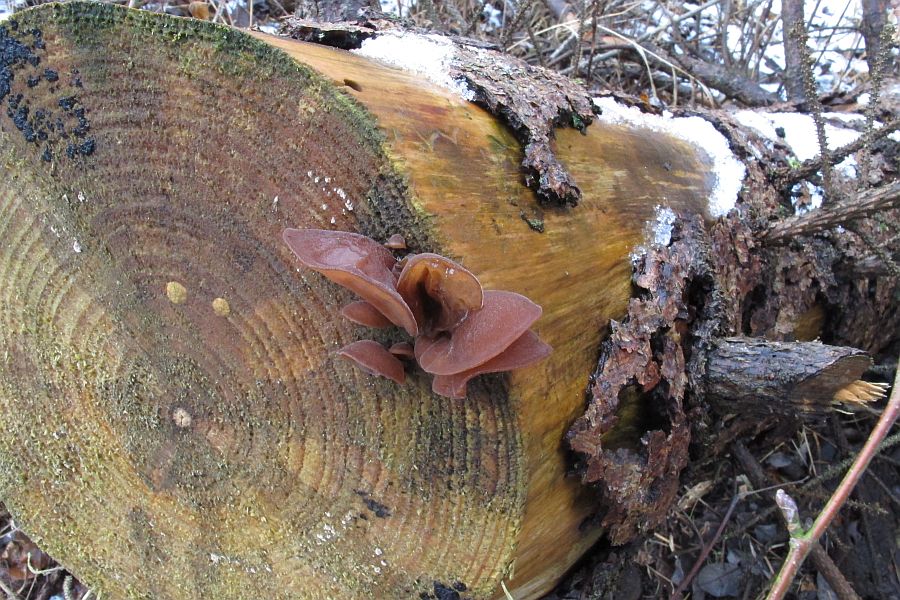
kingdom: Fungi
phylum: Basidiomycota
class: Agaricomycetes
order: Auriculariales
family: Auriculariaceae
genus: Auricularia
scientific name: Auricularia auricula-judae
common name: almindelig judasøre
